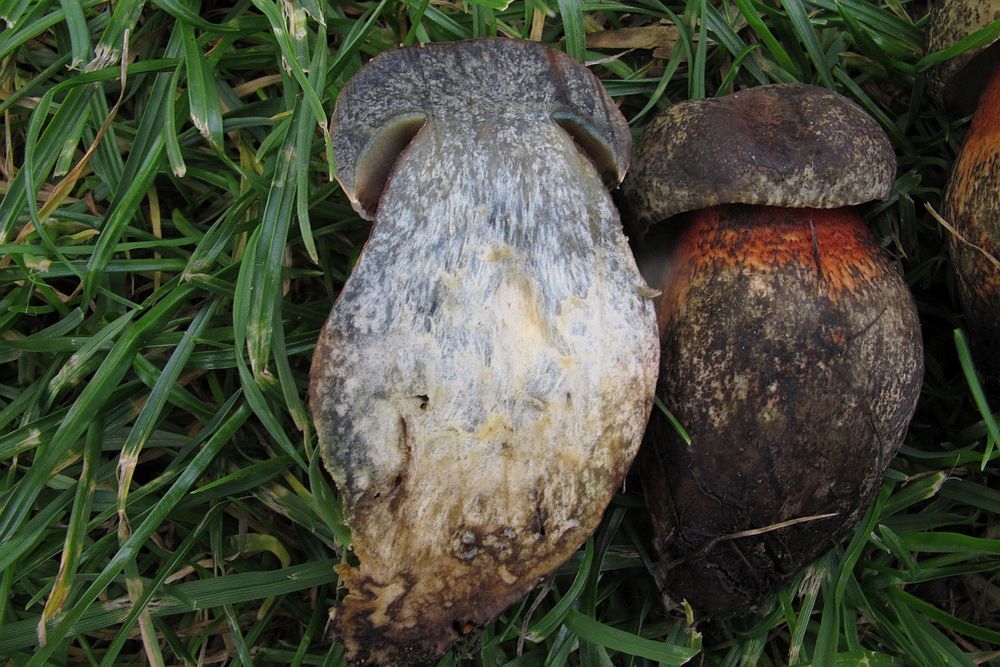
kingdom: Fungi
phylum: Basidiomycota
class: Agaricomycetes
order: Boletales
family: Boletaceae
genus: Suillellus
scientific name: Suillellus luridus
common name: netstokket indigorørhat
